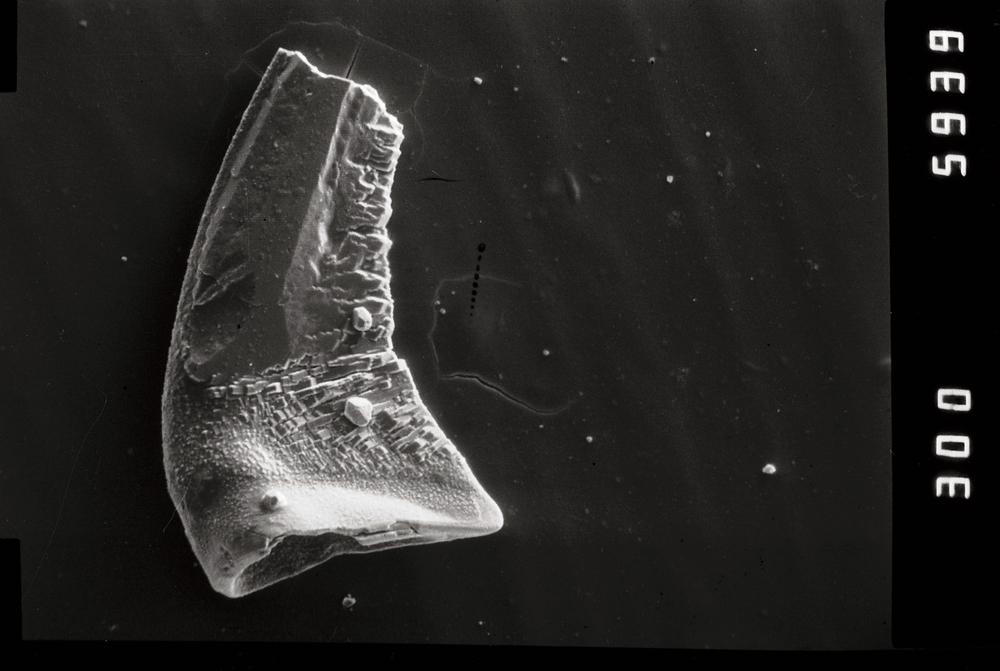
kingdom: Animalia
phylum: Chordata
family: Protopanderodontidae
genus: Juanognathus
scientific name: Juanognathus
